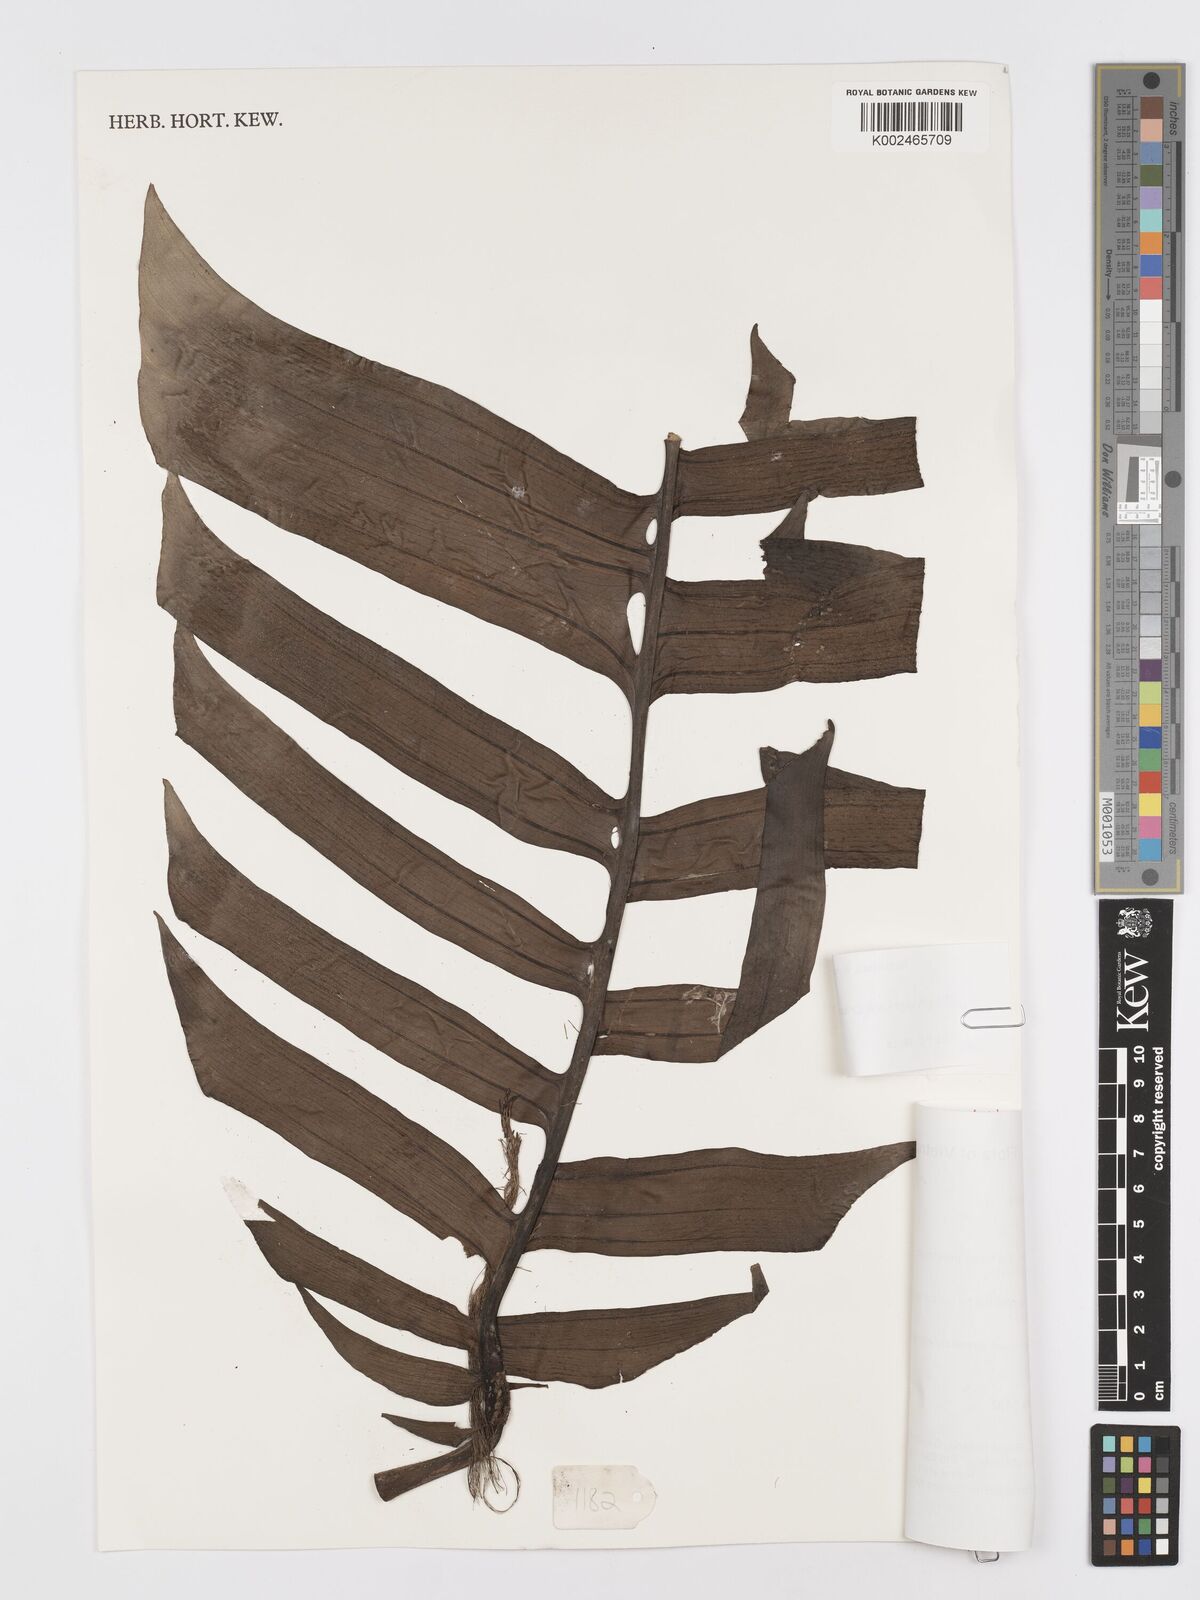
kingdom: Plantae
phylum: Tracheophyta
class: Liliopsida
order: Alismatales
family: Araceae
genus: Rhaphidophora
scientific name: Rhaphidophora crassicaulis
